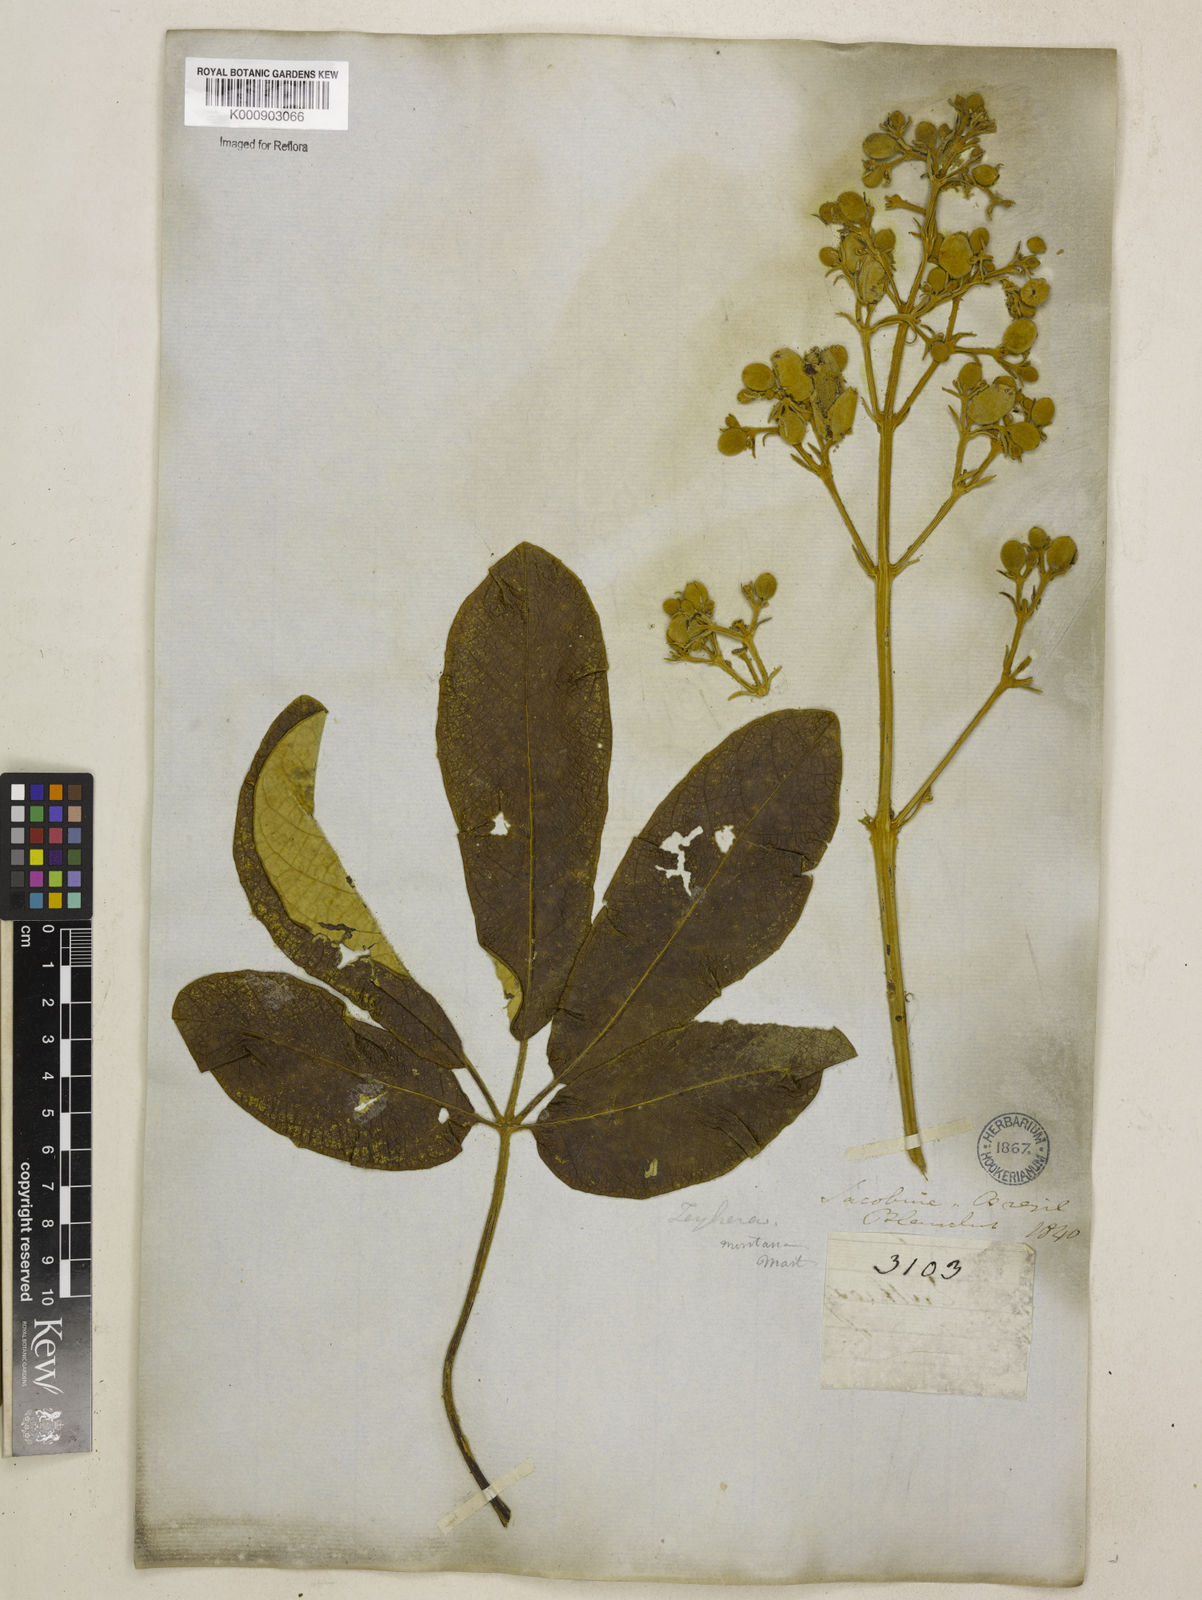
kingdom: Plantae
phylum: Tracheophyta
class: Magnoliopsida
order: Lamiales
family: Bignoniaceae
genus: Zeyheria
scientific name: Zeyheria
